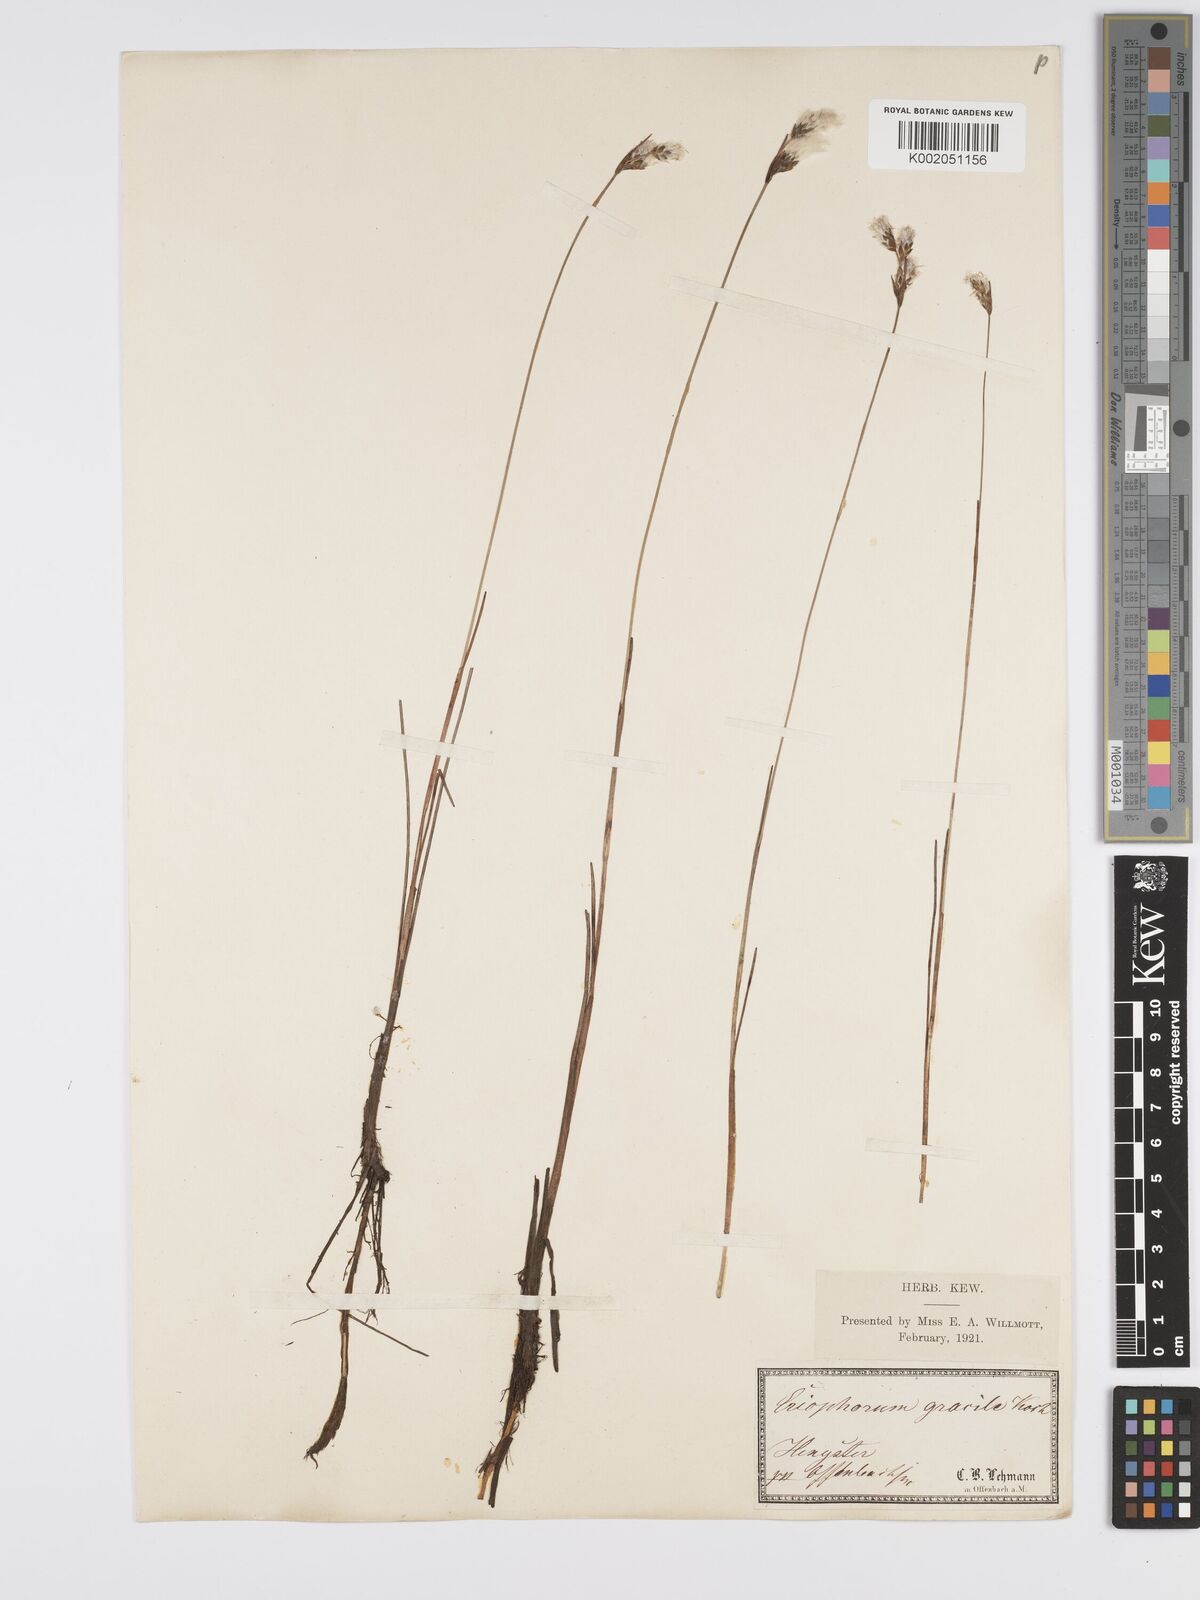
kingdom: Plantae
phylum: Tracheophyta
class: Liliopsida
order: Poales
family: Cyperaceae
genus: Eriophorum
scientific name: Eriophorum gracile
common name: Slender cottongrass
